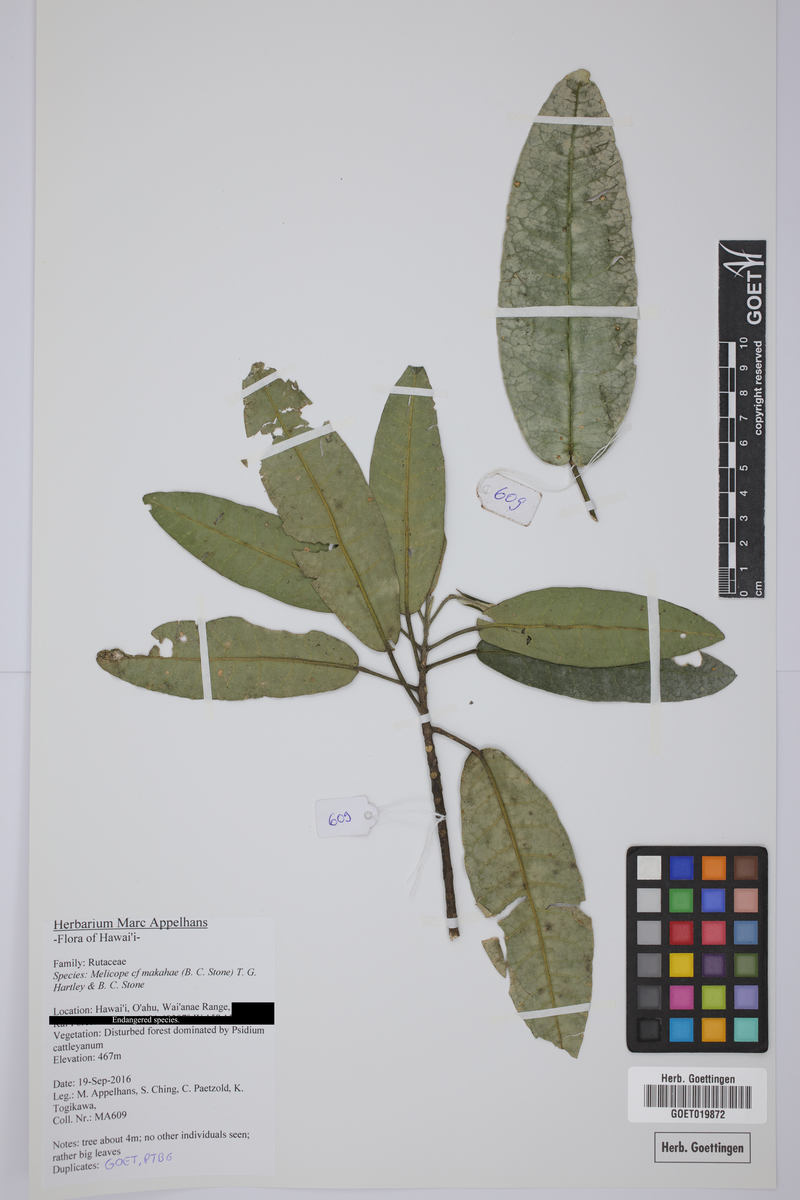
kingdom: Plantae
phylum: Tracheophyta
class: Magnoliopsida
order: Sapindales
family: Rutaceae
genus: Melicope
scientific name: Melicope makahae
